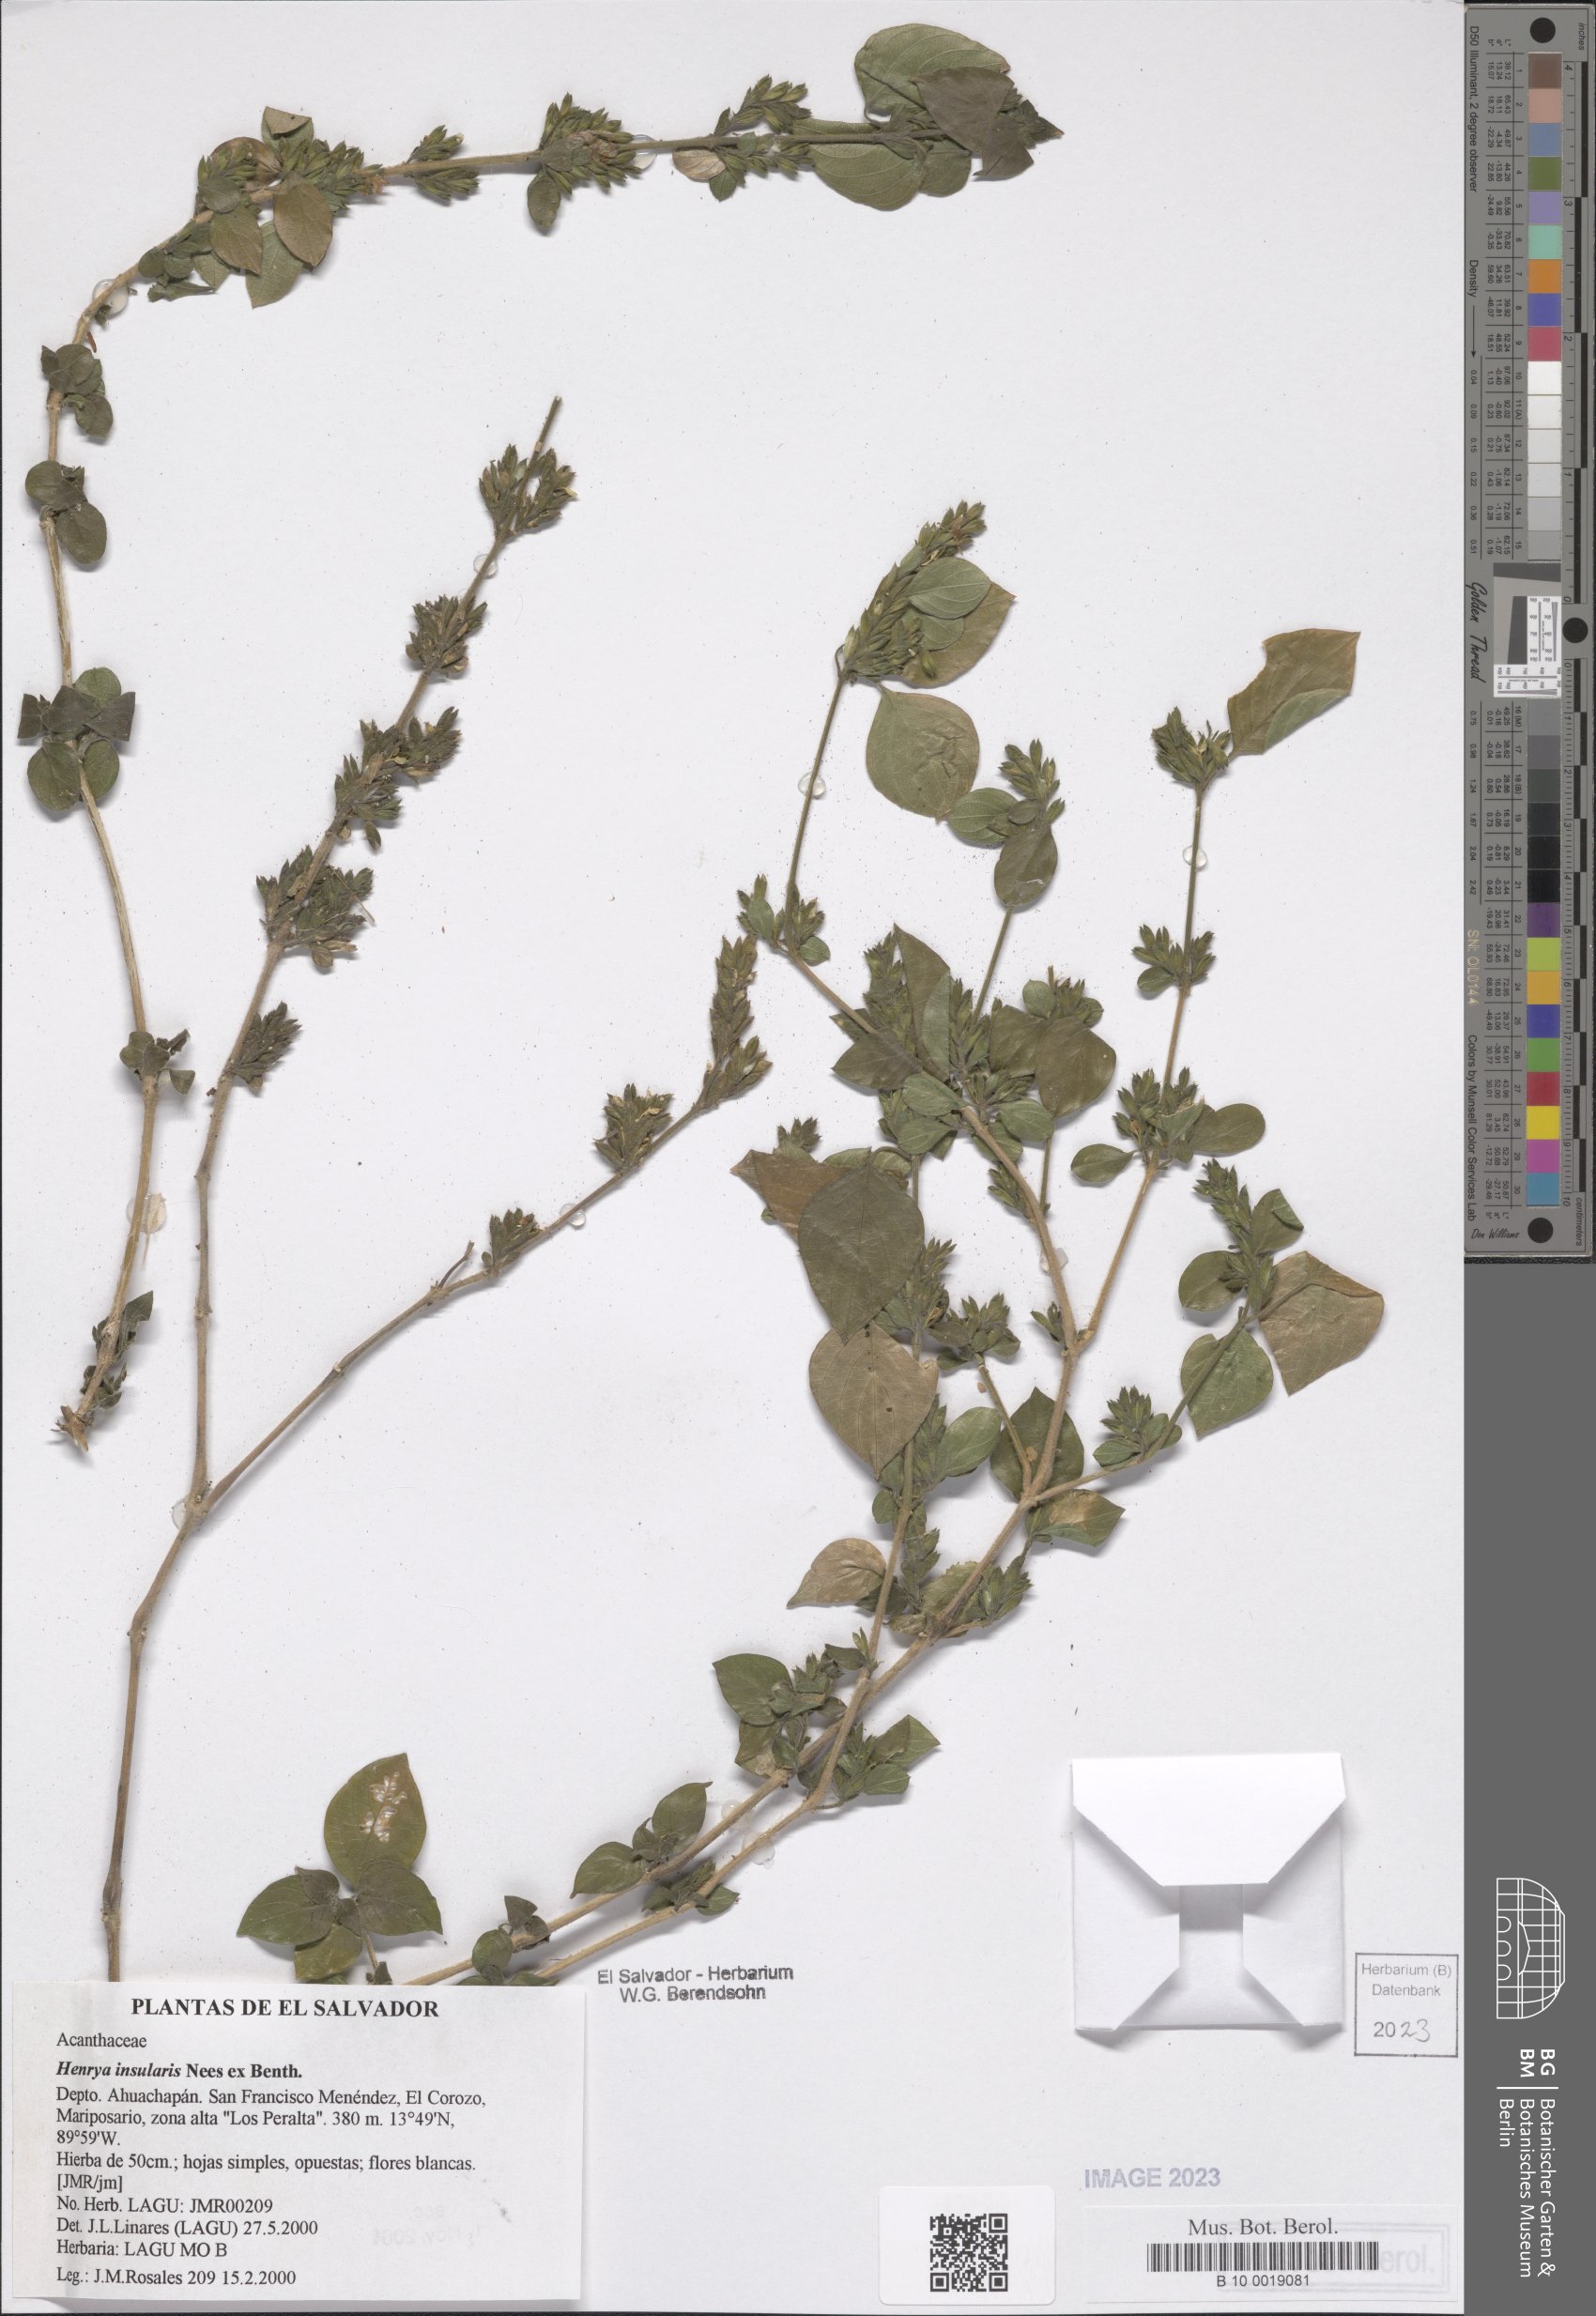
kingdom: Plantae
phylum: Tracheophyta
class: Magnoliopsida
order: Lamiales
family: Acanthaceae
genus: Henrya
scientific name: Henrya insularis
